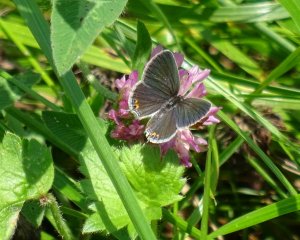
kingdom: Animalia
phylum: Arthropoda
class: Insecta
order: Lepidoptera
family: Lycaenidae
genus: Elkalyce
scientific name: Elkalyce comyntas
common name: Eastern Tailed-Blue
